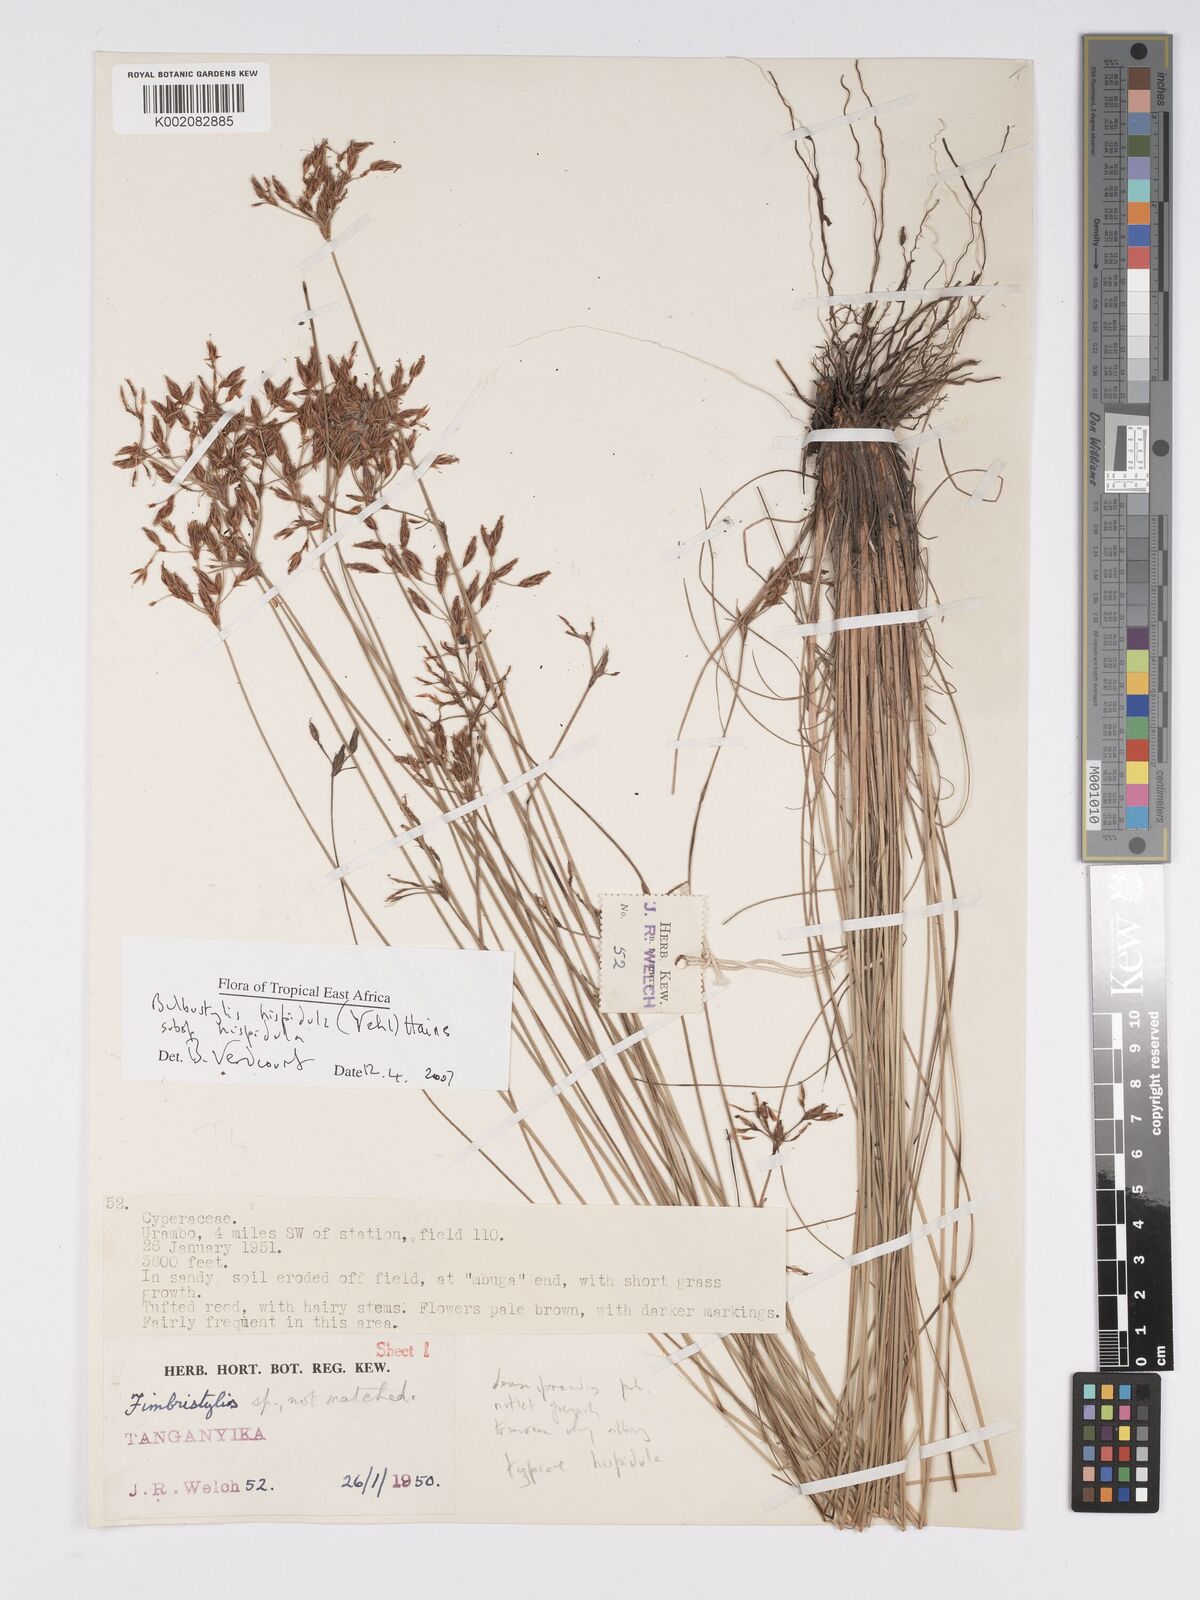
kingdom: Plantae
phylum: Tracheophyta
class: Liliopsida
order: Poales
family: Cyperaceae
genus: Bulbostylis
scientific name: Bulbostylis hispidula
